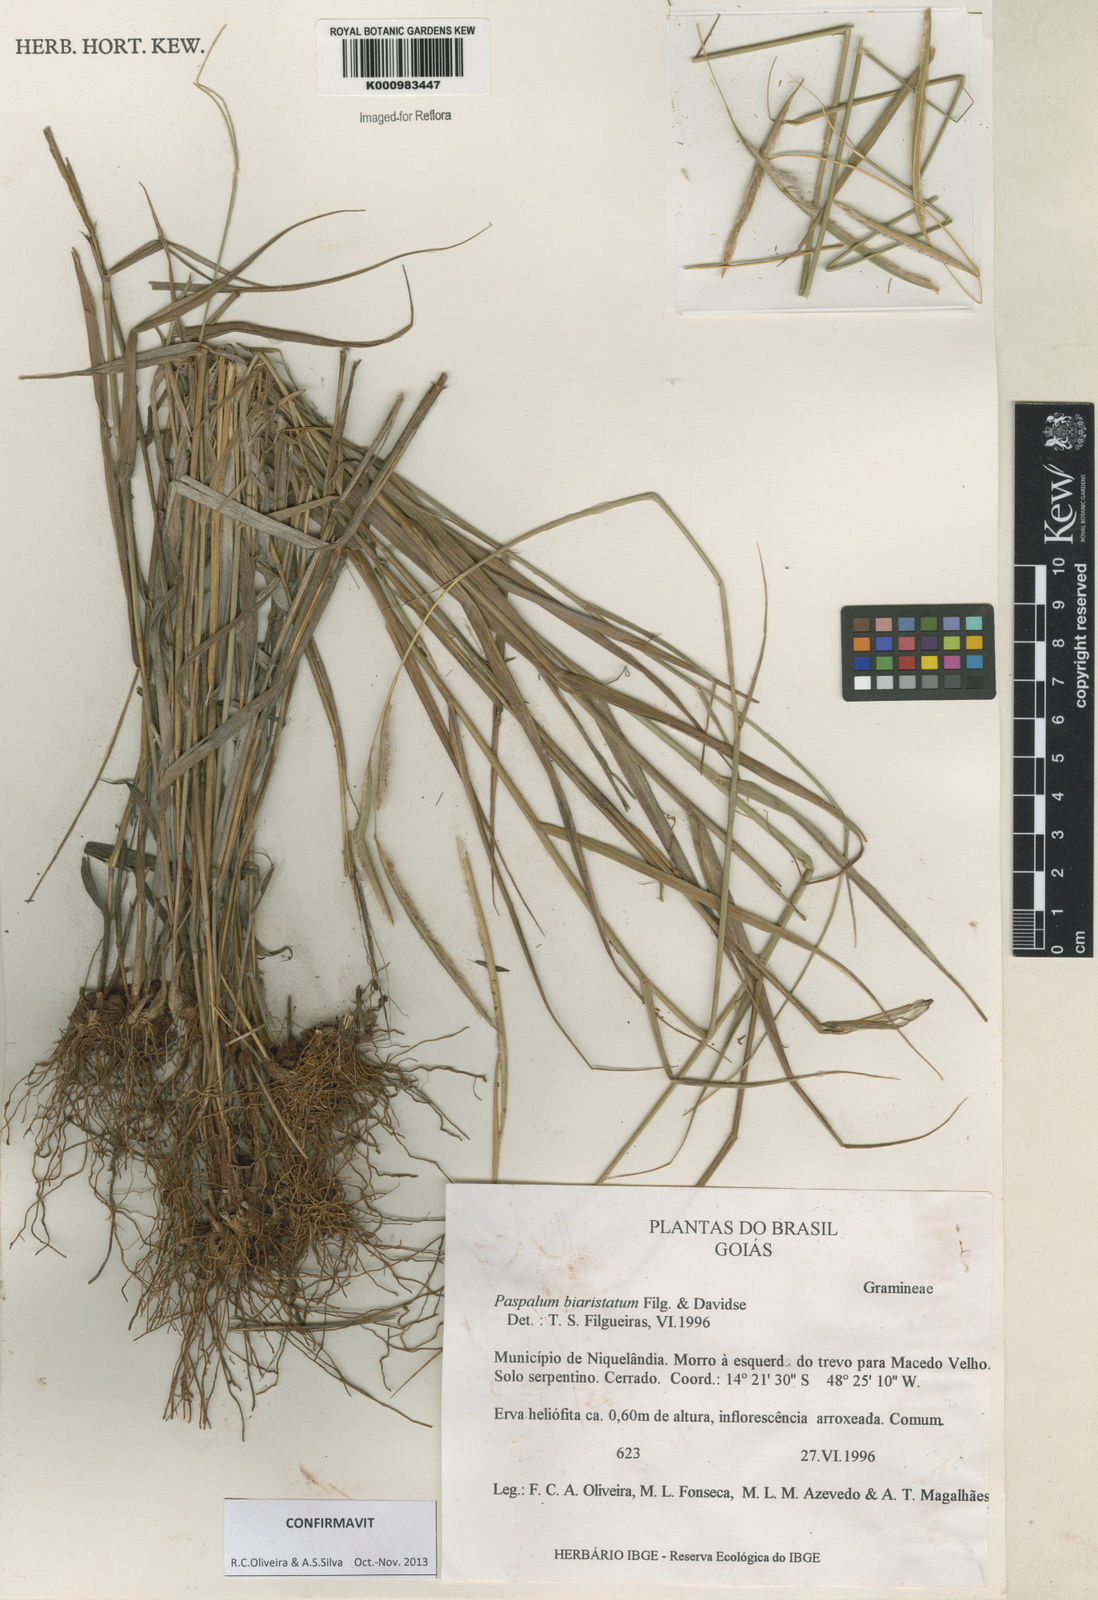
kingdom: Plantae
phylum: Tracheophyta
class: Liliopsida
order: Poales
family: Poaceae
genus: Paspalum
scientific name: Paspalum biaristatum
